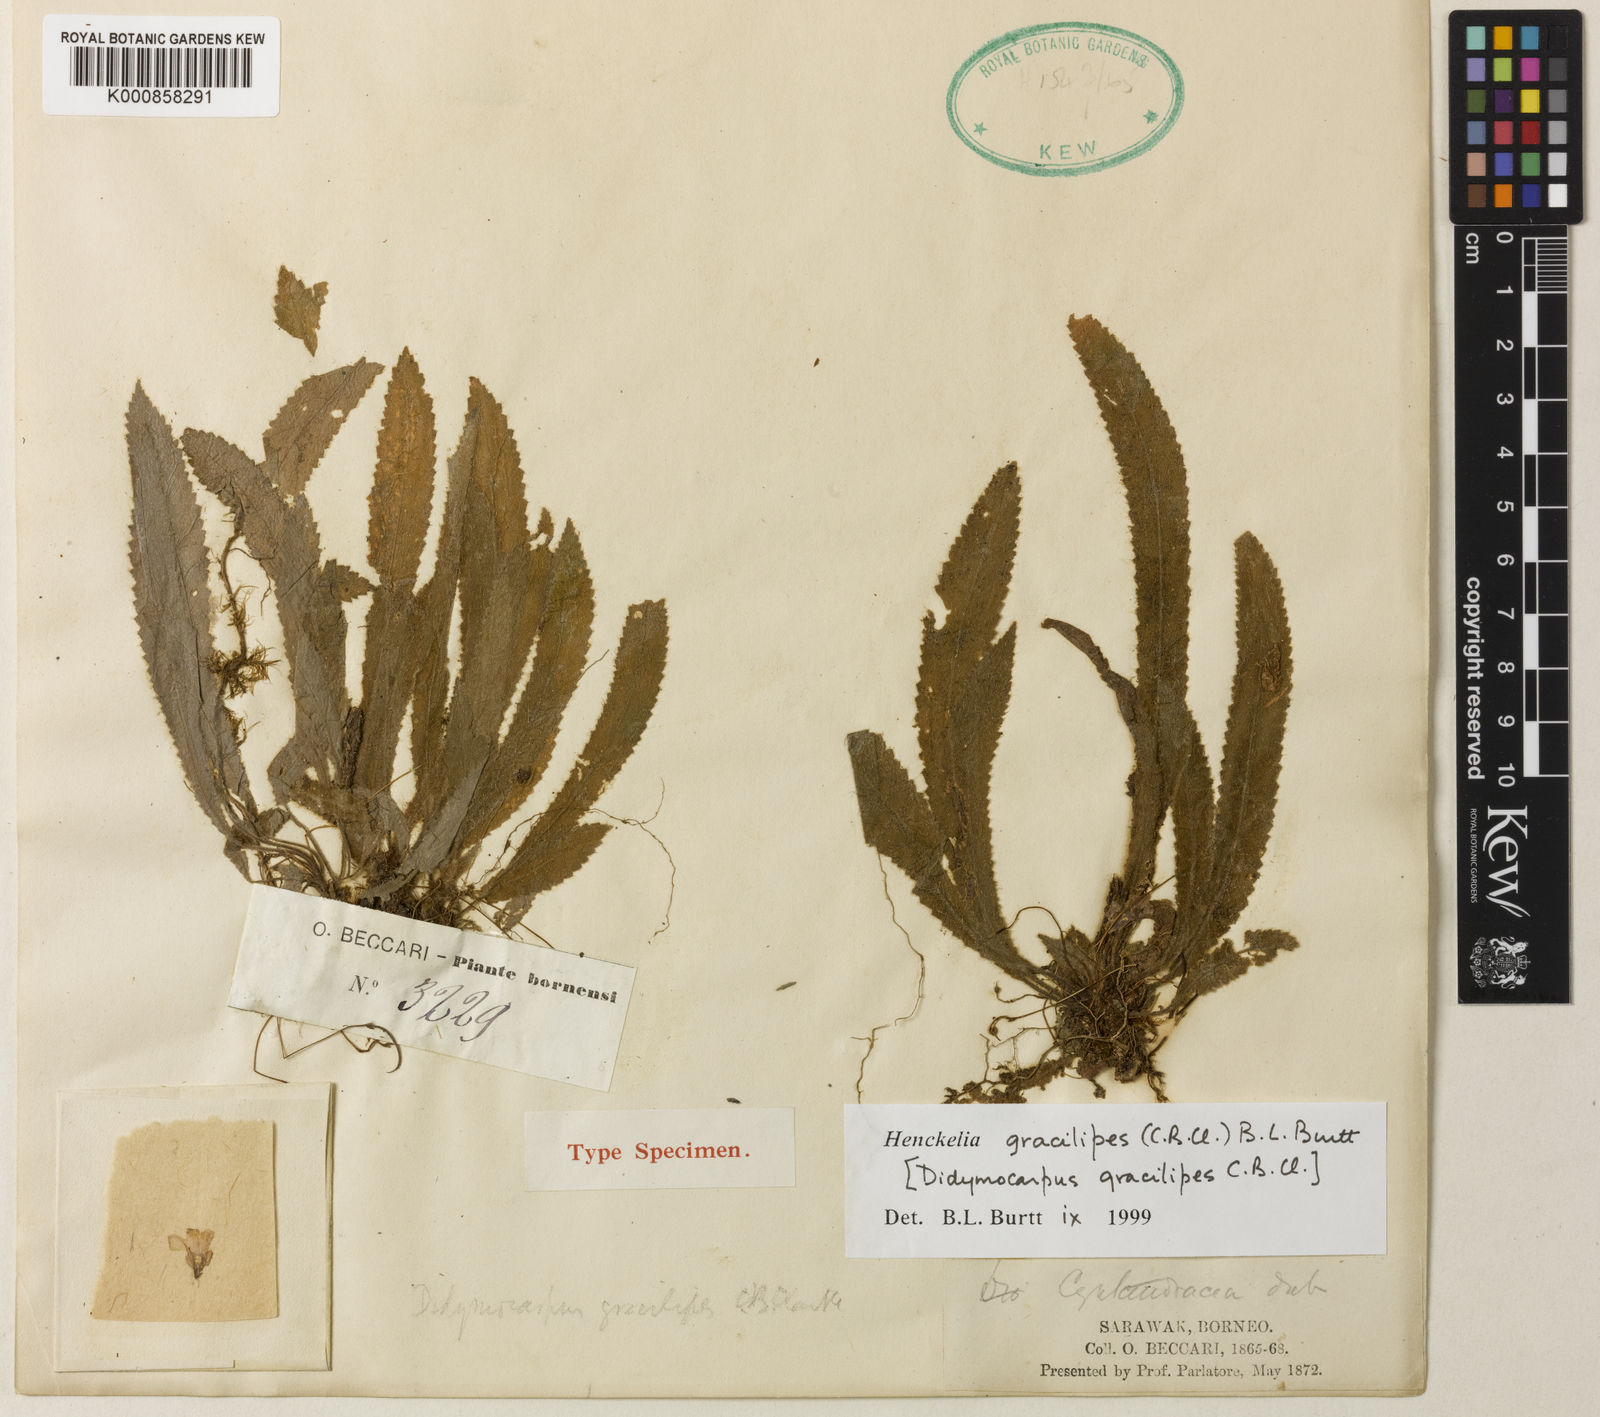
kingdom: Plantae
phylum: Tracheophyta
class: Magnoliopsida
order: Lamiales
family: Gesneriaceae
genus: Codonoboea
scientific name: Codonoboea gracilipes
